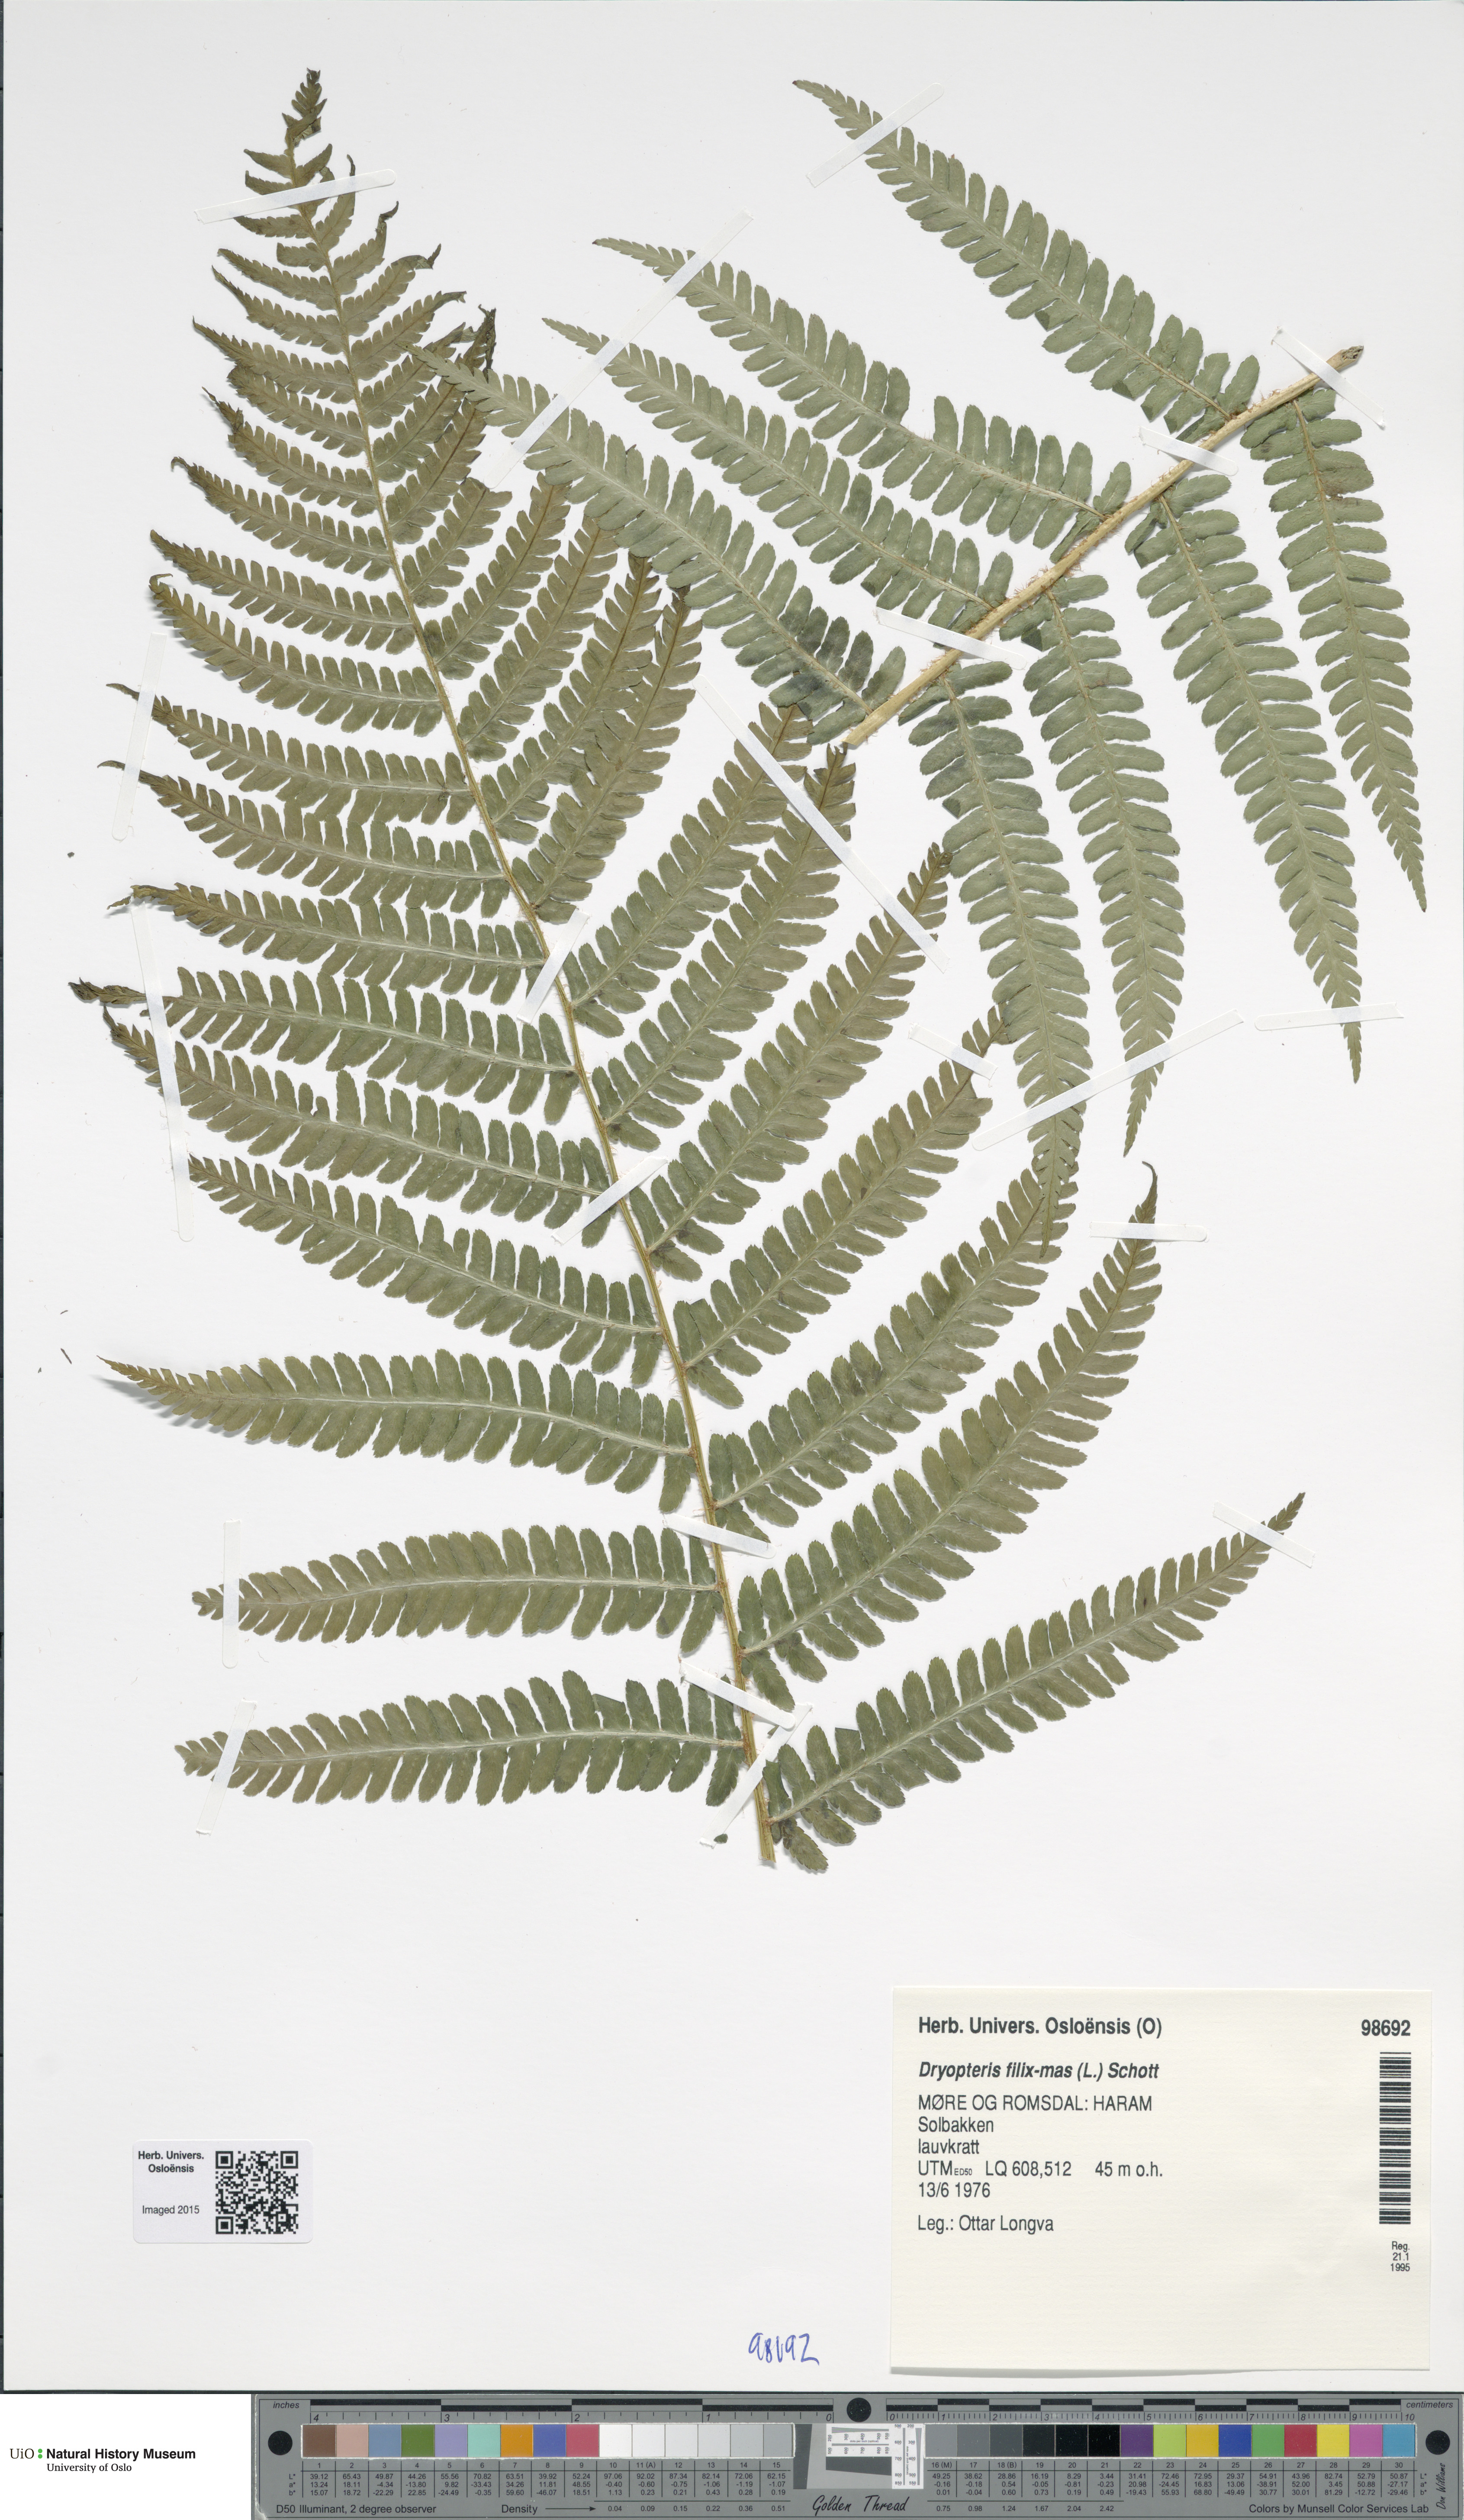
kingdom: Plantae
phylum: Tracheophyta
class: Polypodiopsida
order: Polypodiales
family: Dryopteridaceae
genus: Dryopteris
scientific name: Dryopteris filix-mas
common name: Male fern
